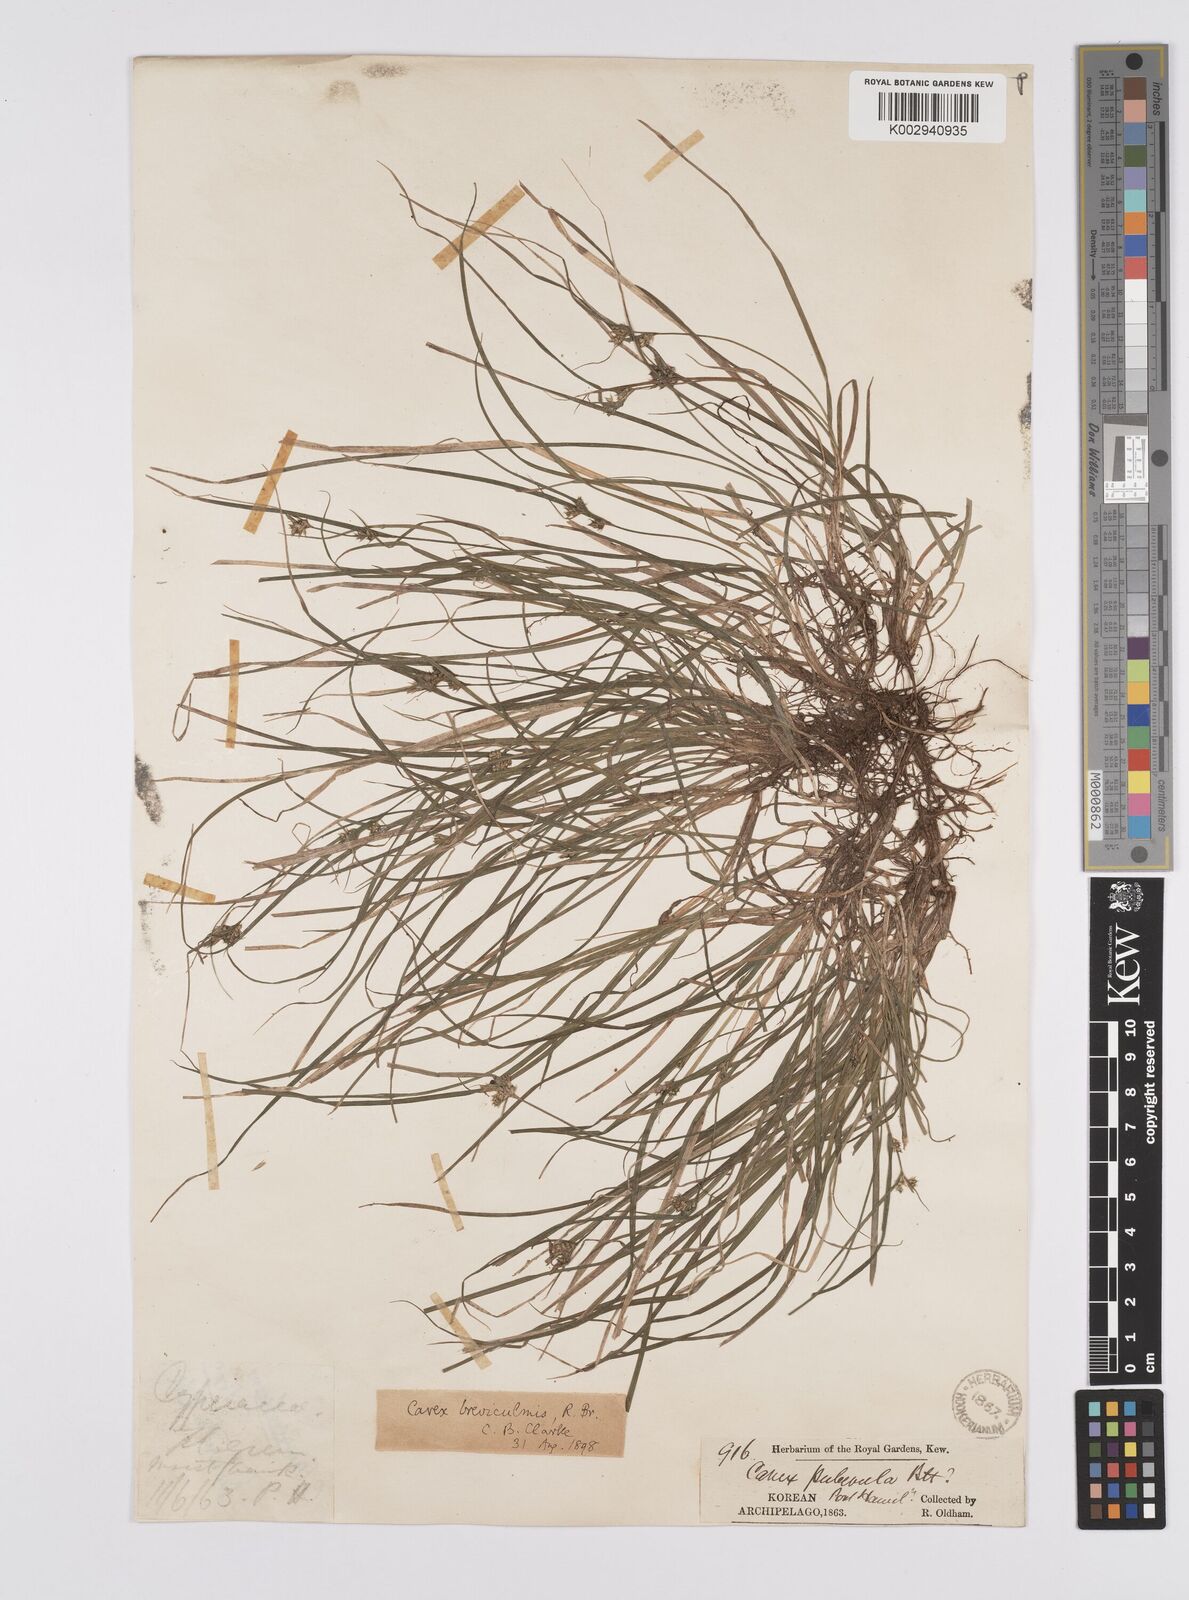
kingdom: Plantae
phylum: Tracheophyta
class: Liliopsida
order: Poales
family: Cyperaceae
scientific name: Cyperaceae
